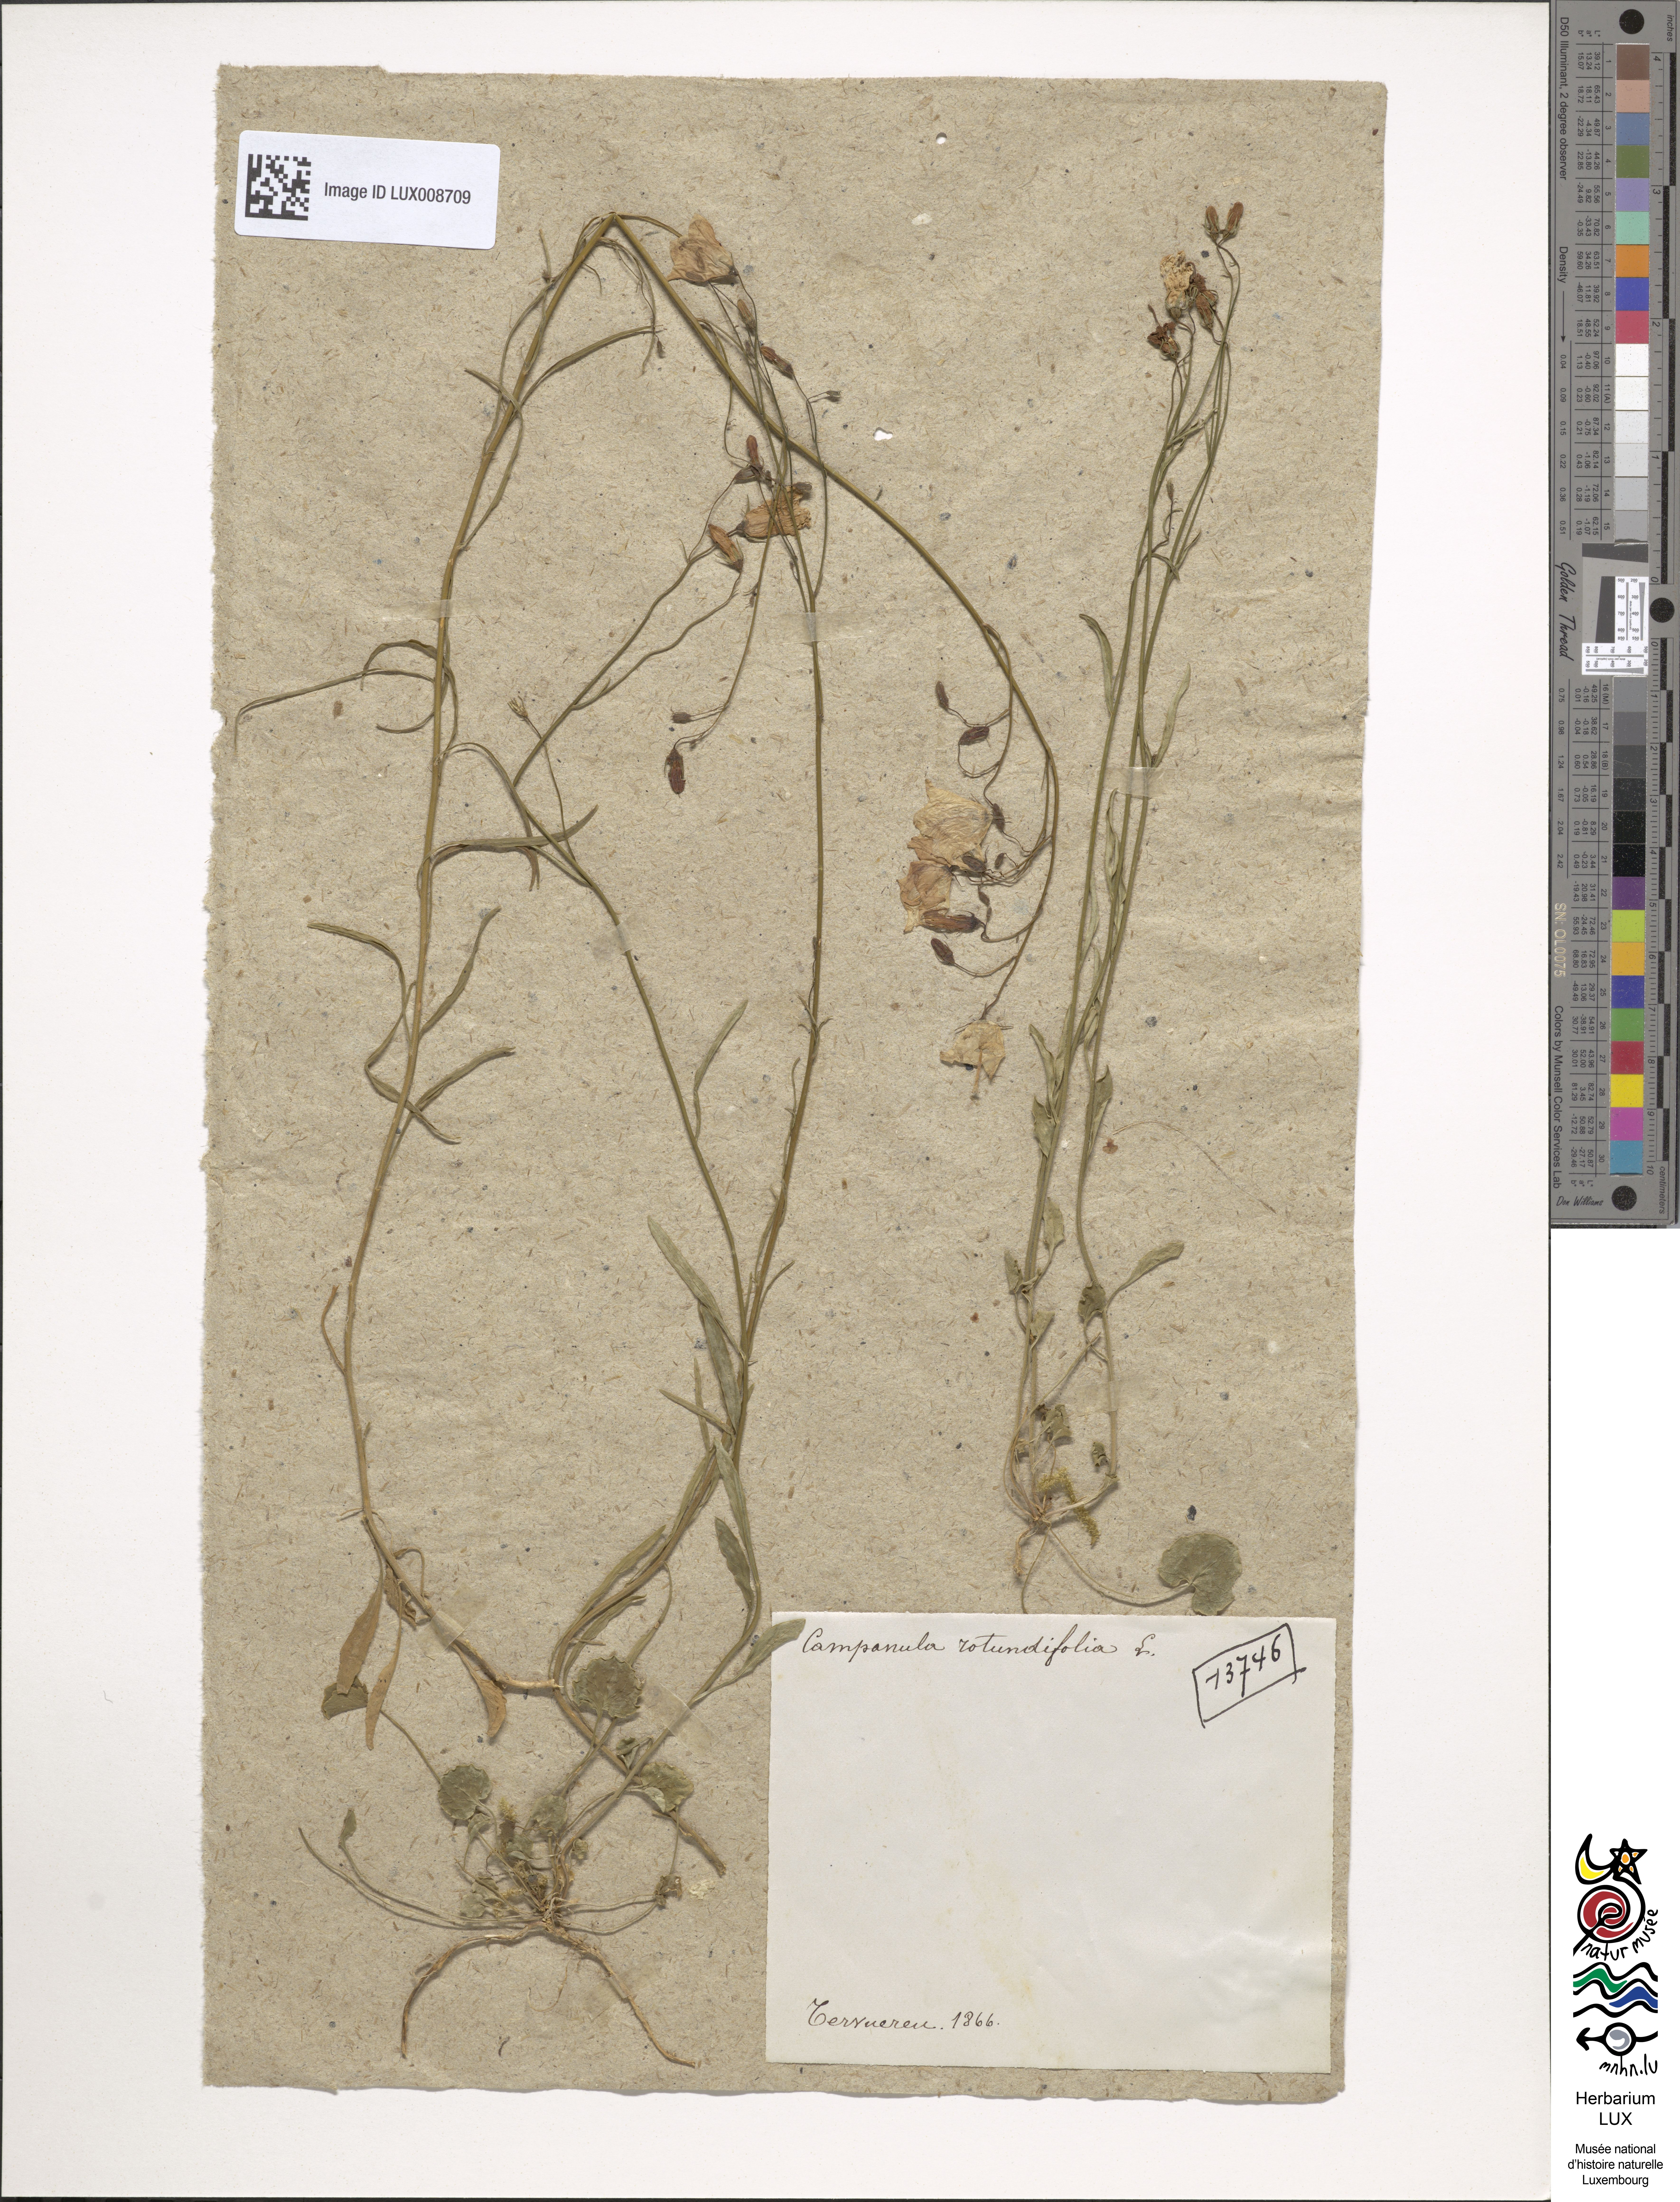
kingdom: Plantae
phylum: Tracheophyta
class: Magnoliopsida
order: Asterales
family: Campanulaceae
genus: Campanula
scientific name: Campanula rotundifolia
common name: Harebell
